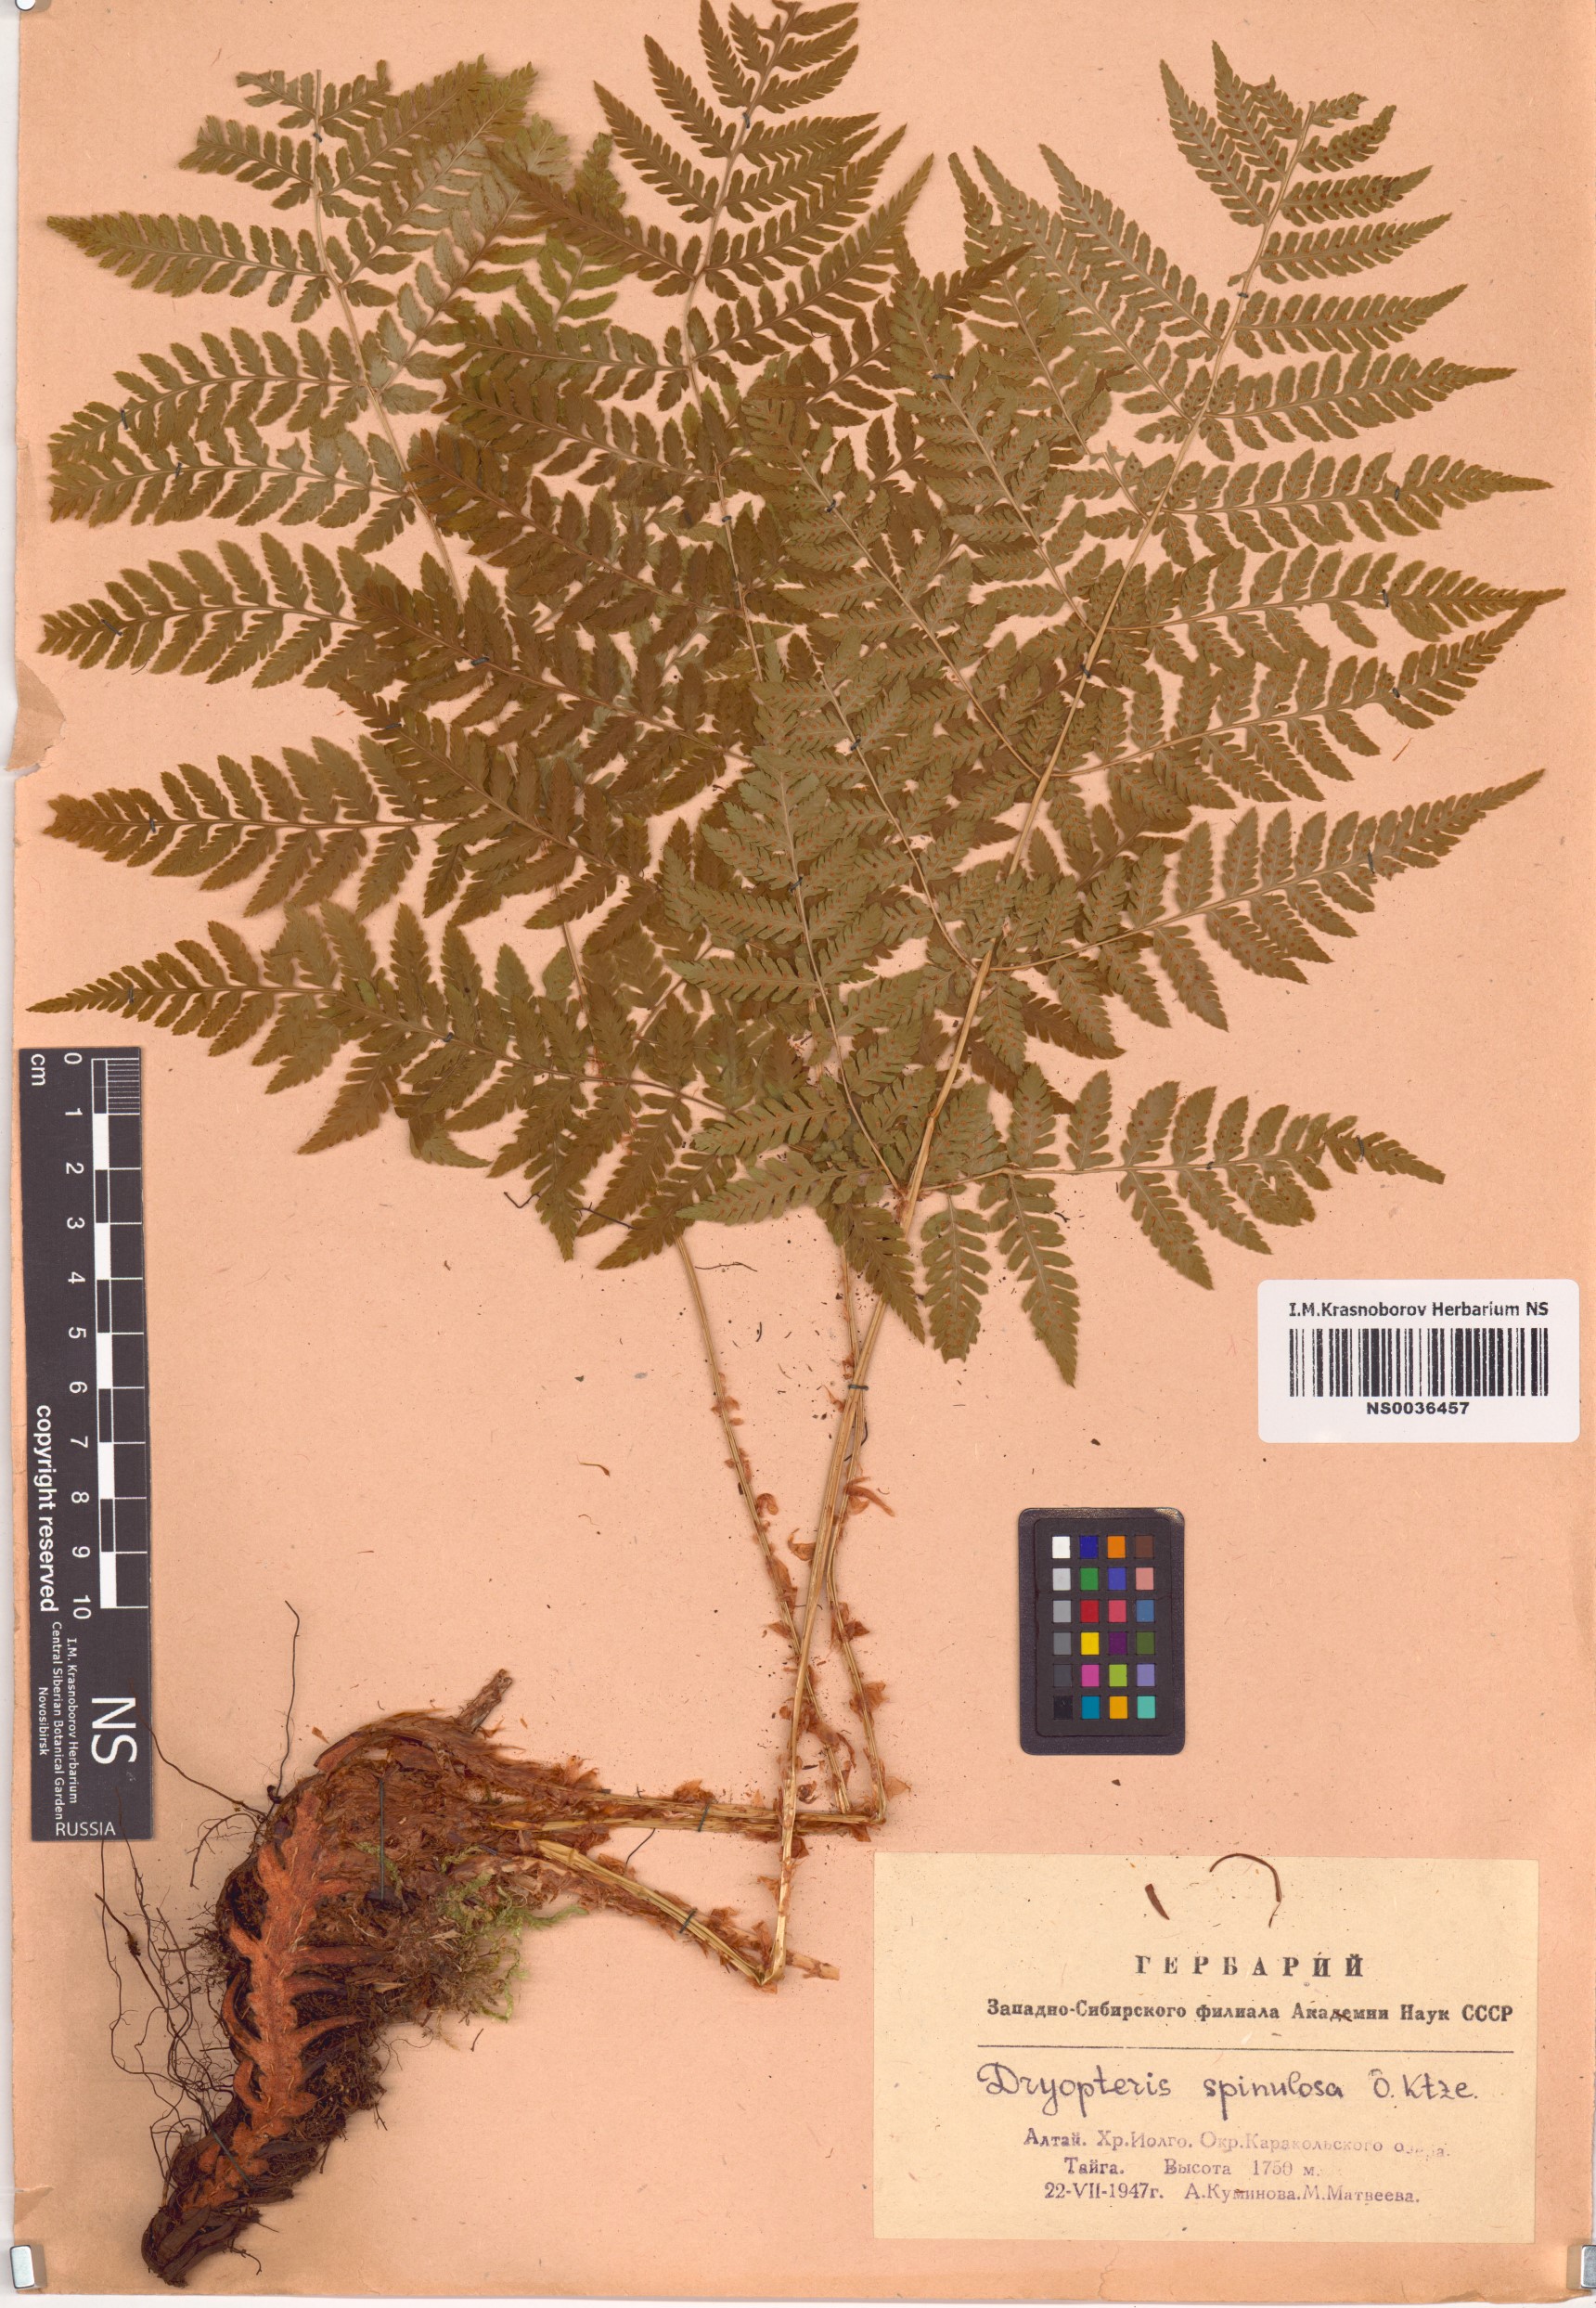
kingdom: Plantae
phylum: Tracheophyta
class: Polypodiopsida
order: Polypodiales
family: Dryopteridaceae
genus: Dryopteris
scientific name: Dryopteris carthusiana
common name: Narrow buckler-fern
